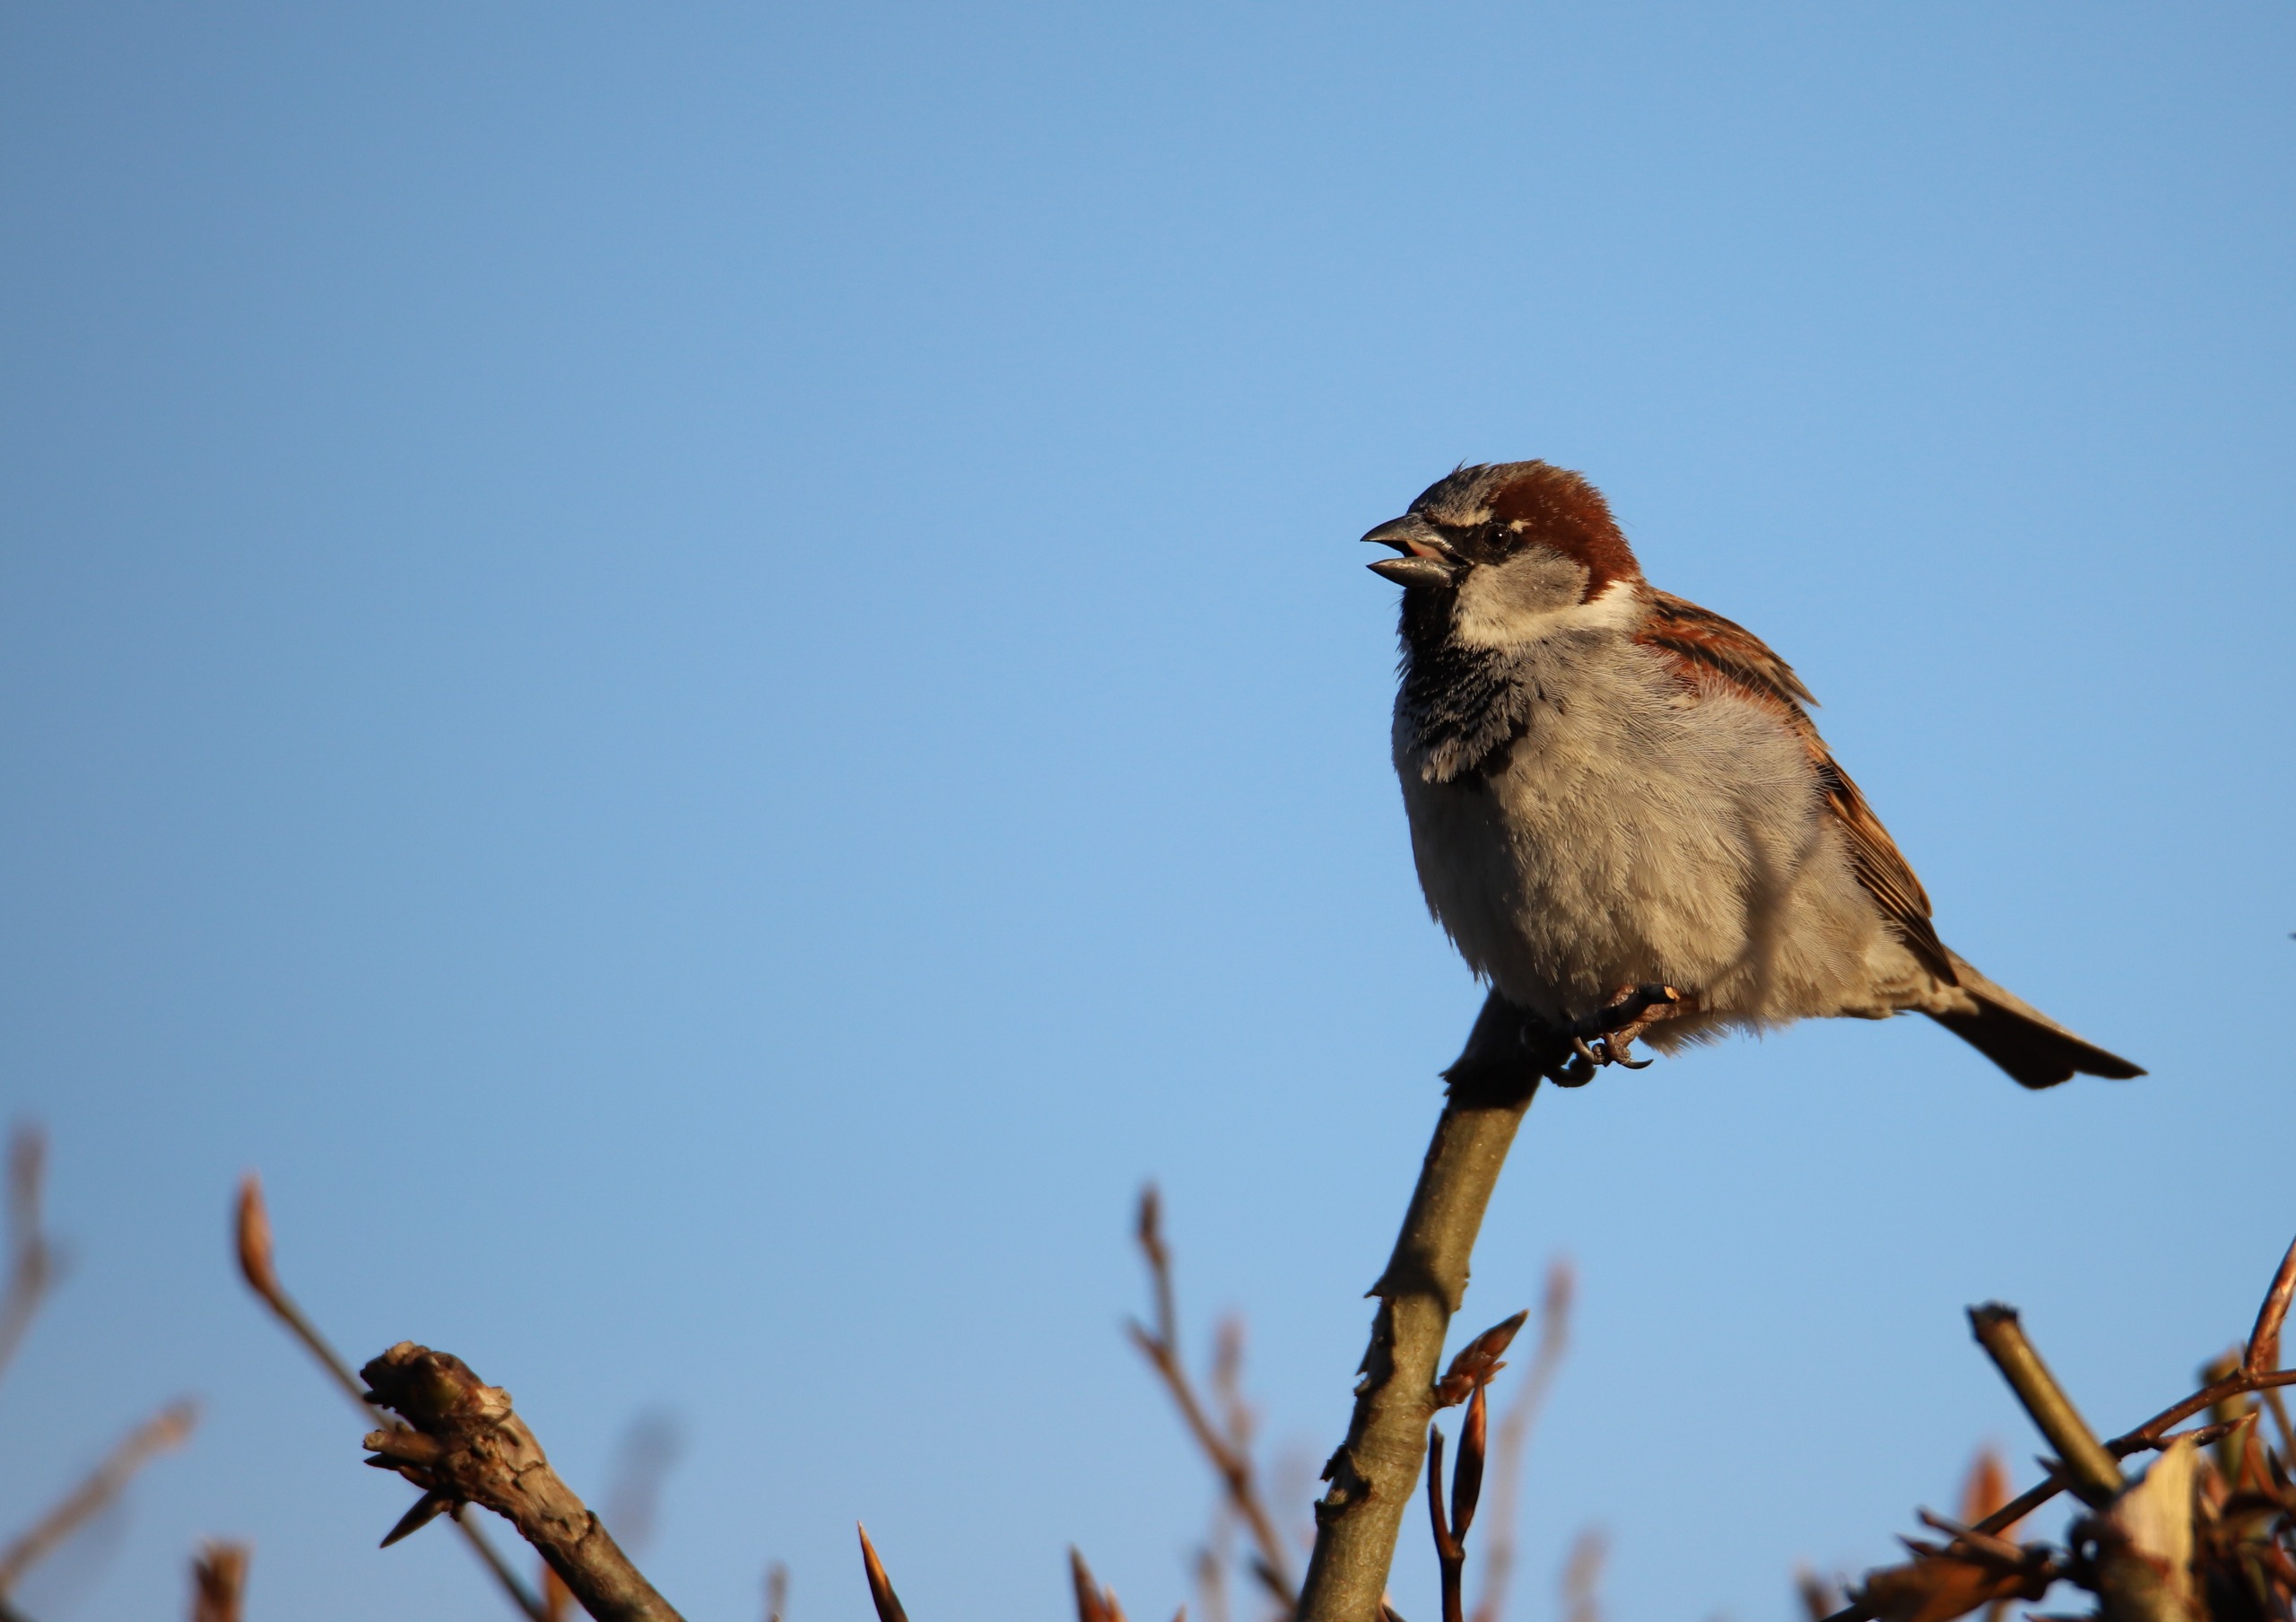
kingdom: Animalia
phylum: Chordata
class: Aves
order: Passeriformes
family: Passeridae
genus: Passer
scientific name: Passer domesticus
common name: Gråspurv
